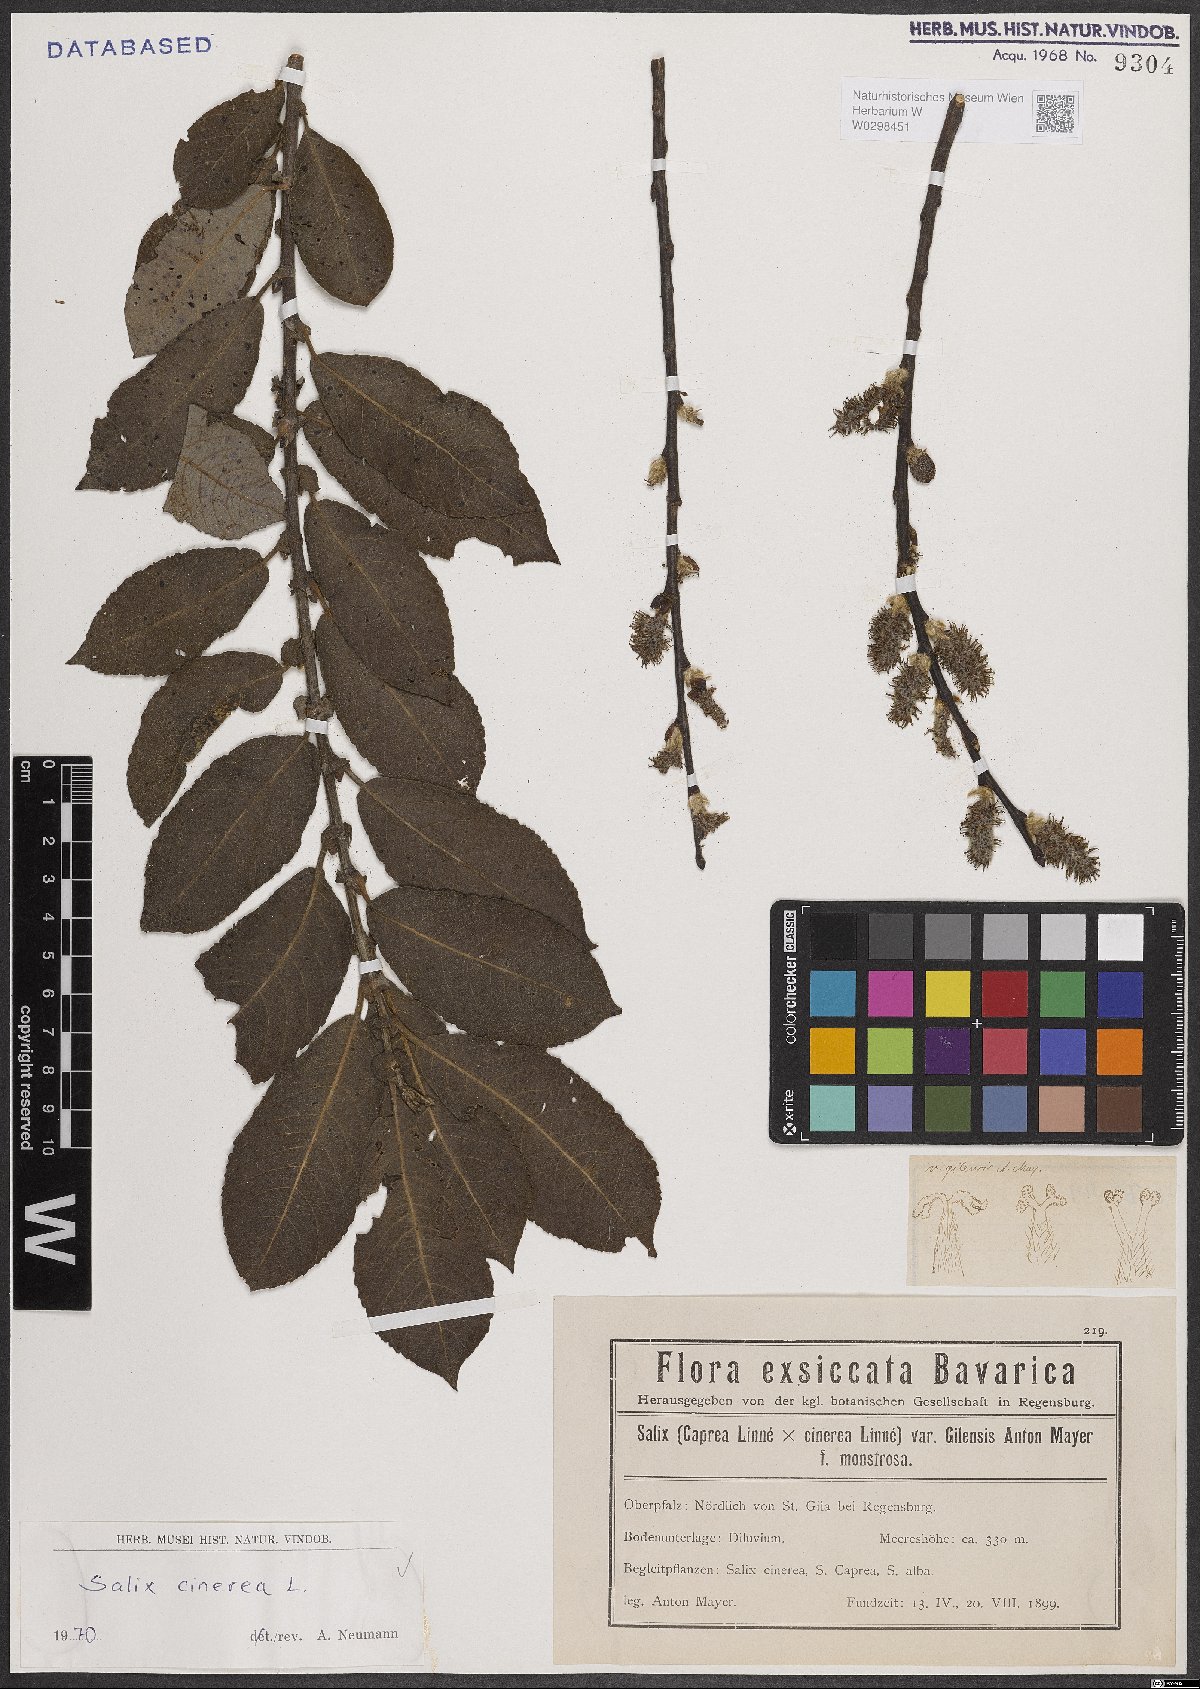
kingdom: Plantae
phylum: Tracheophyta
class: Magnoliopsida
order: Malpighiales
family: Salicaceae
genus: Salix
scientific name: Salix cinerea
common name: Common sallow
